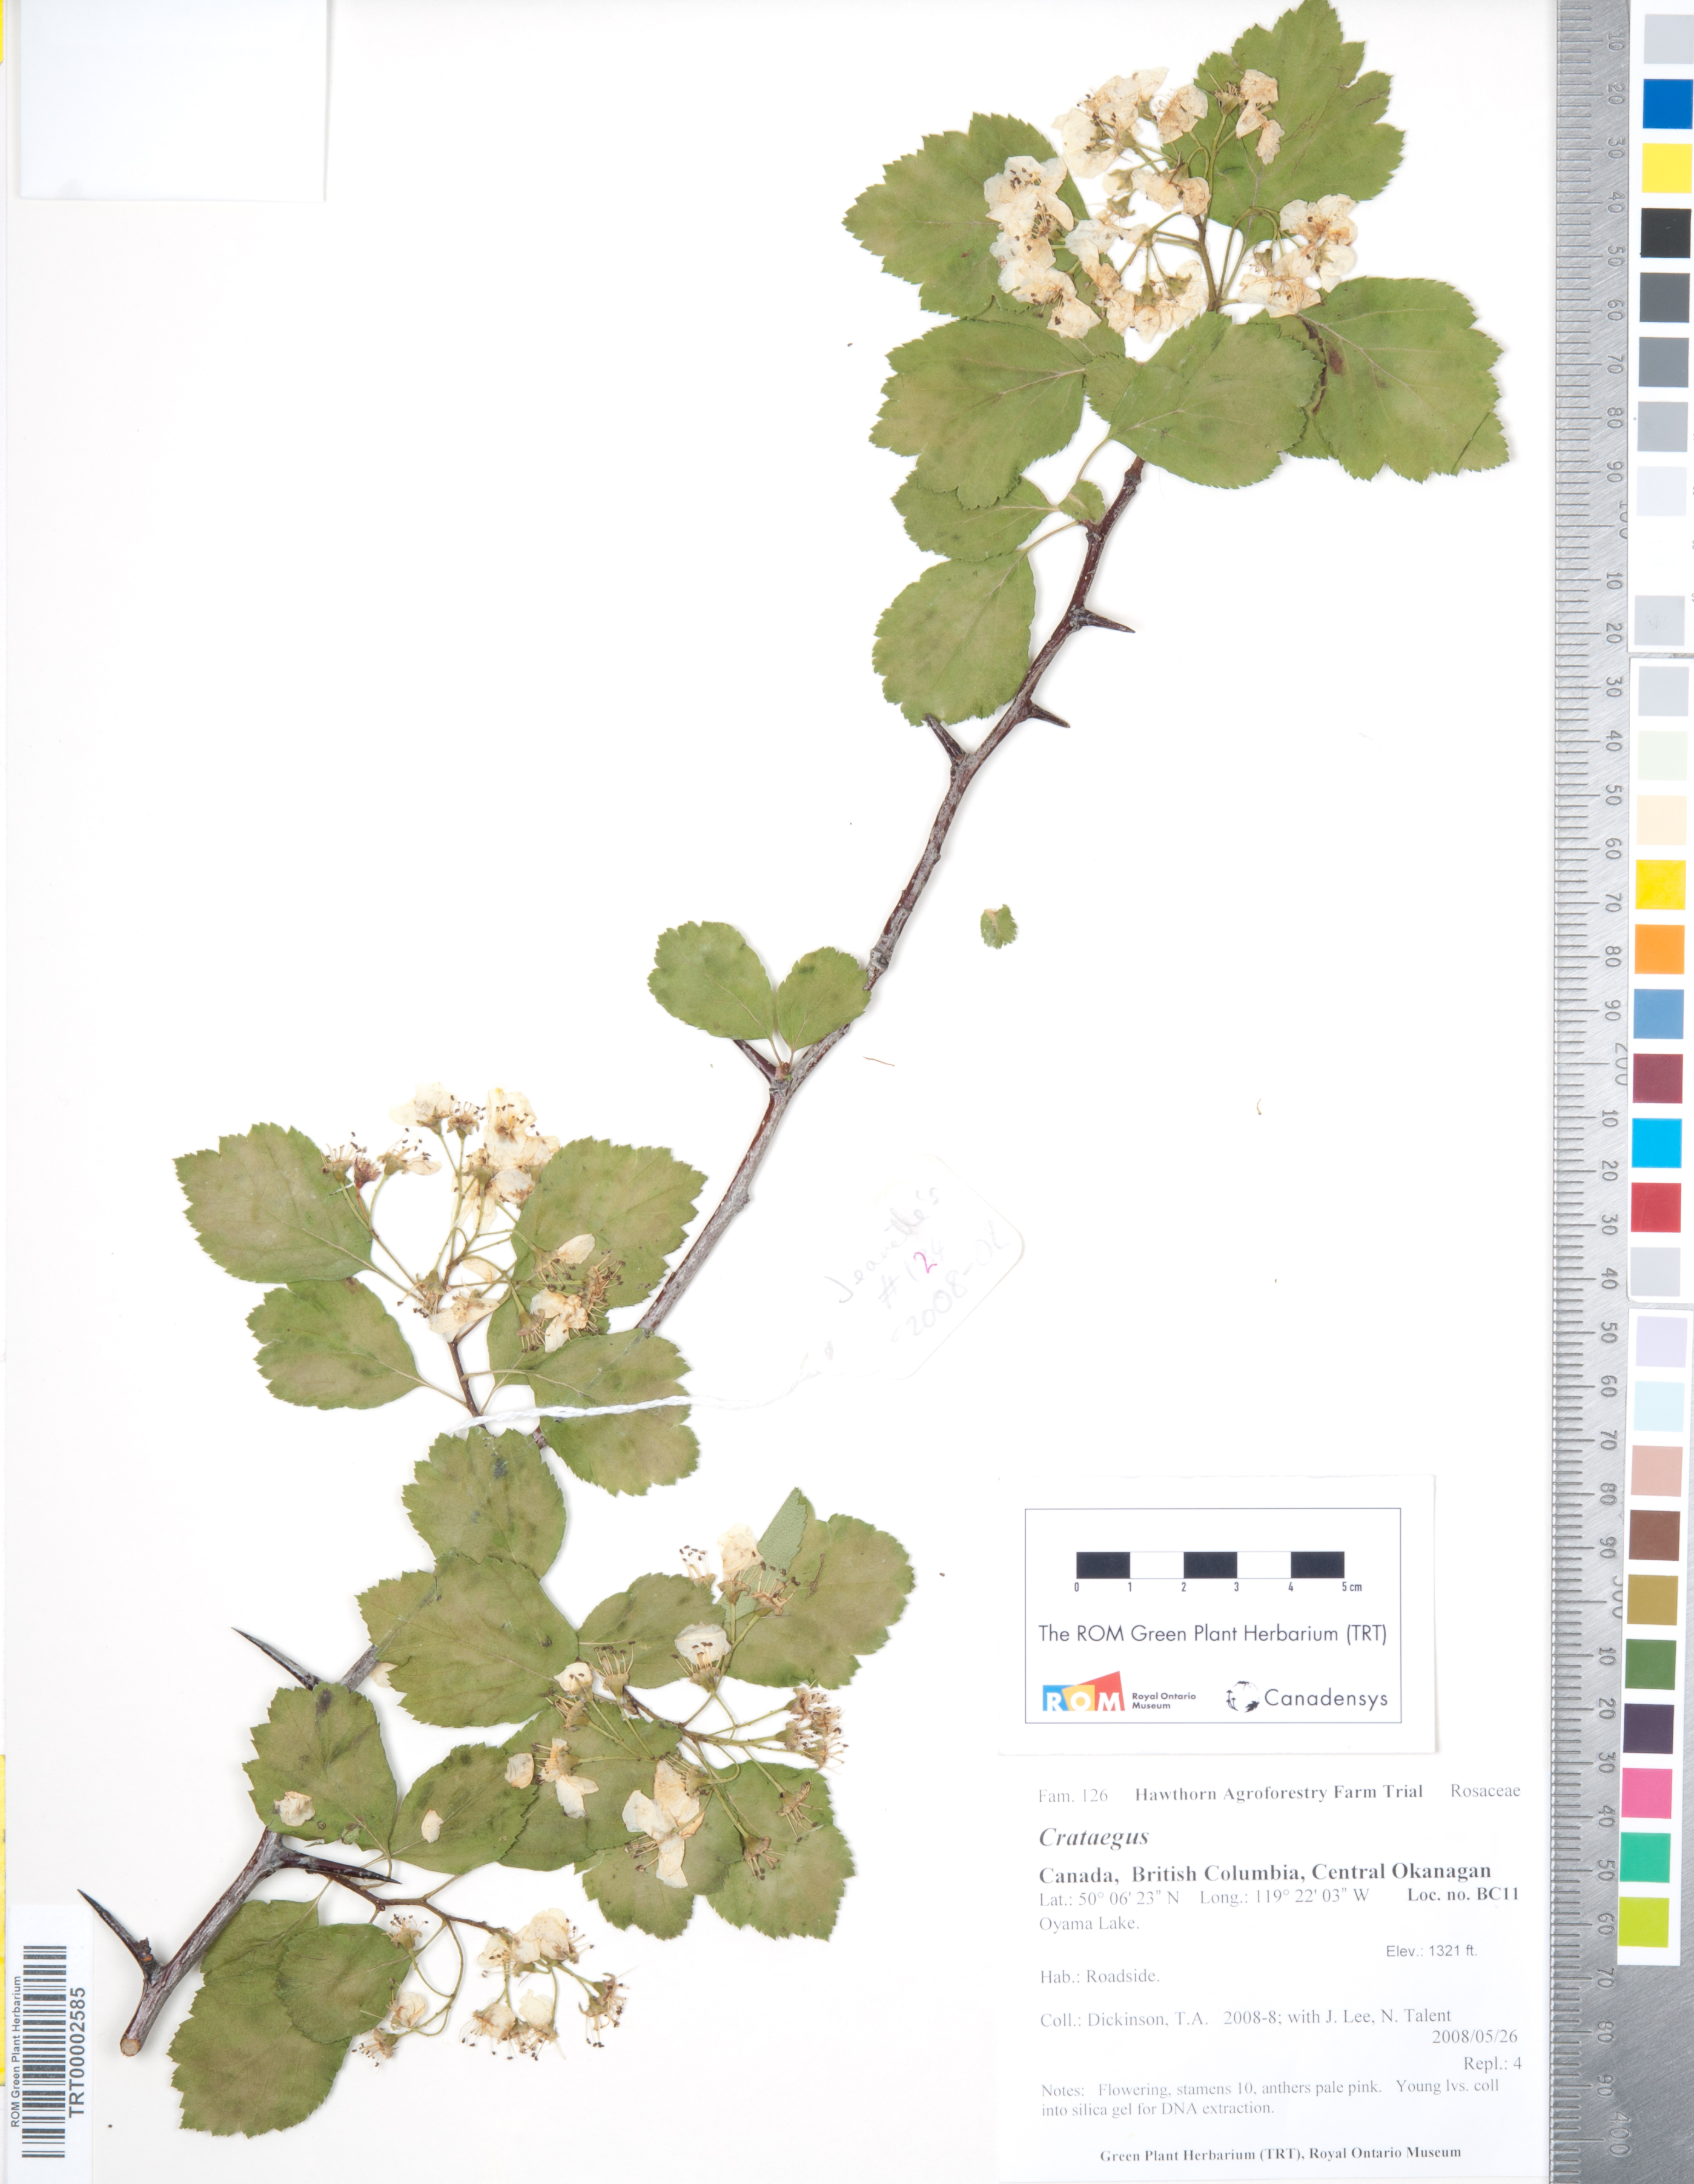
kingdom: Plantae
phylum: Tracheophyta
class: Magnoliopsida
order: Rosales
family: Rosaceae
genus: Crataegus
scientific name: Crataegus phippsii
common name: Phipps' hawthorn
